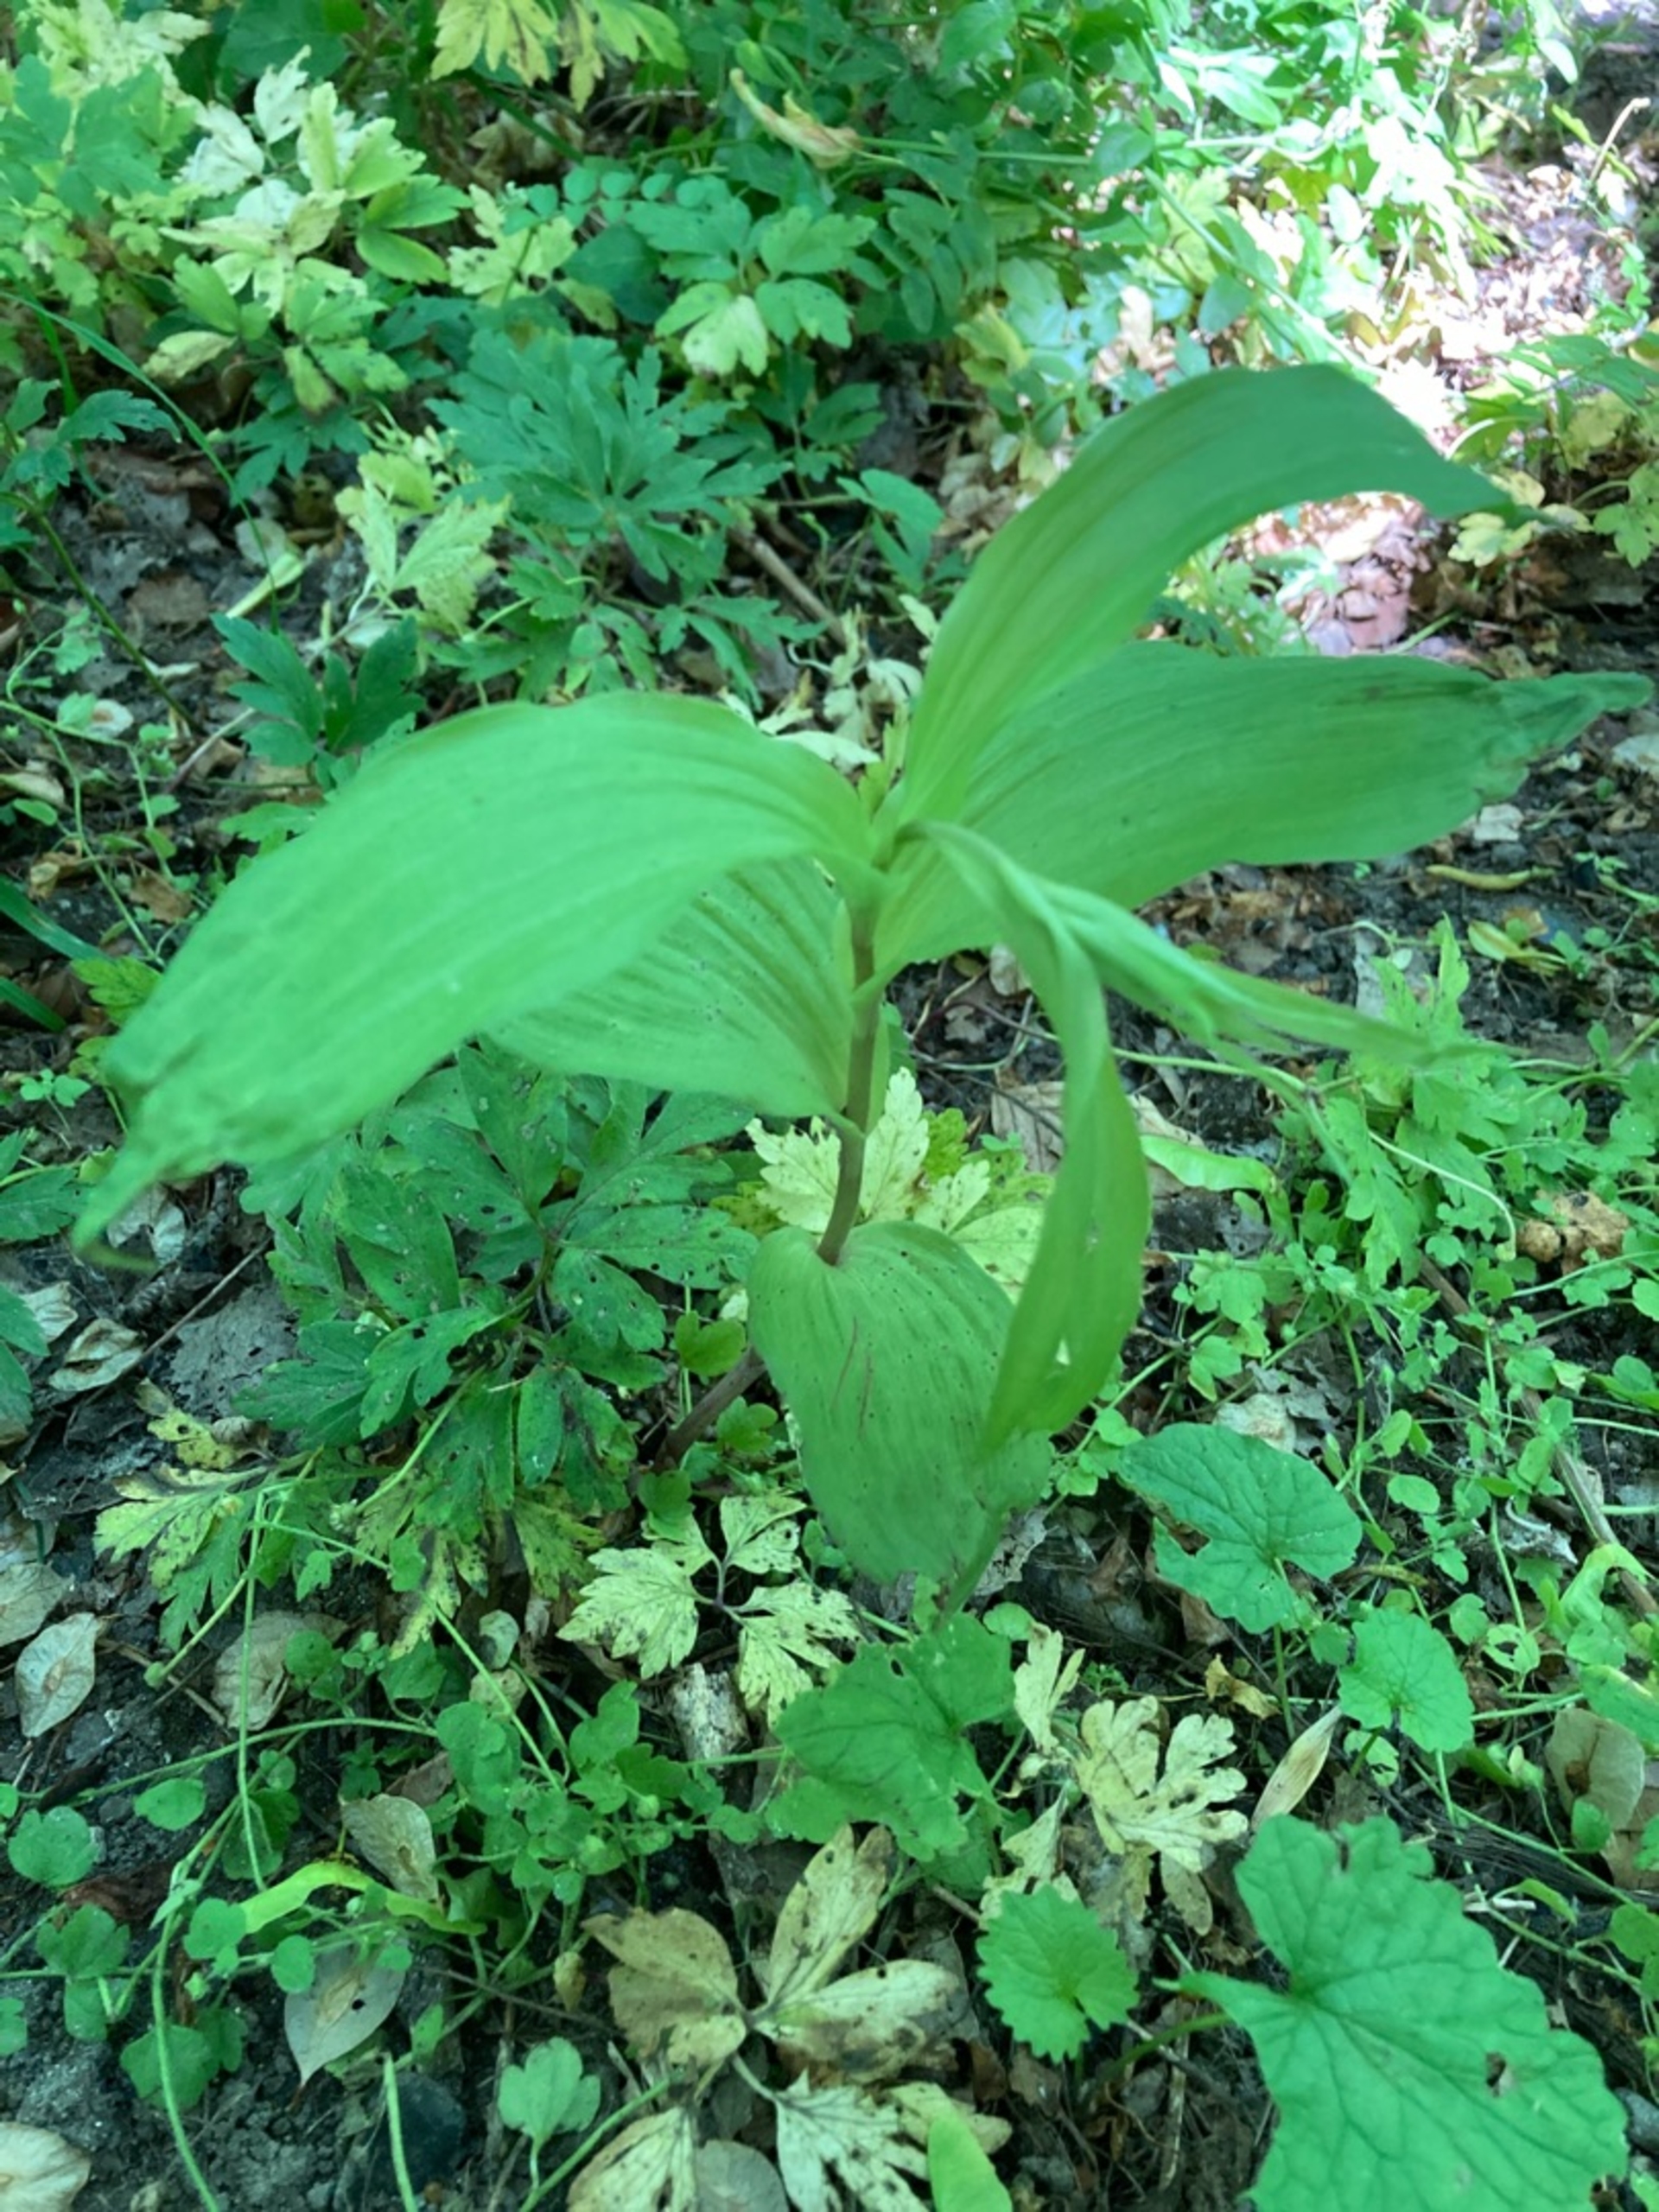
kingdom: Plantae
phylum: Tracheophyta
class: Liliopsida
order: Asparagales
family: Orchidaceae
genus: Epipactis
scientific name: Epipactis helleborine
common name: Skov-hullæbe
